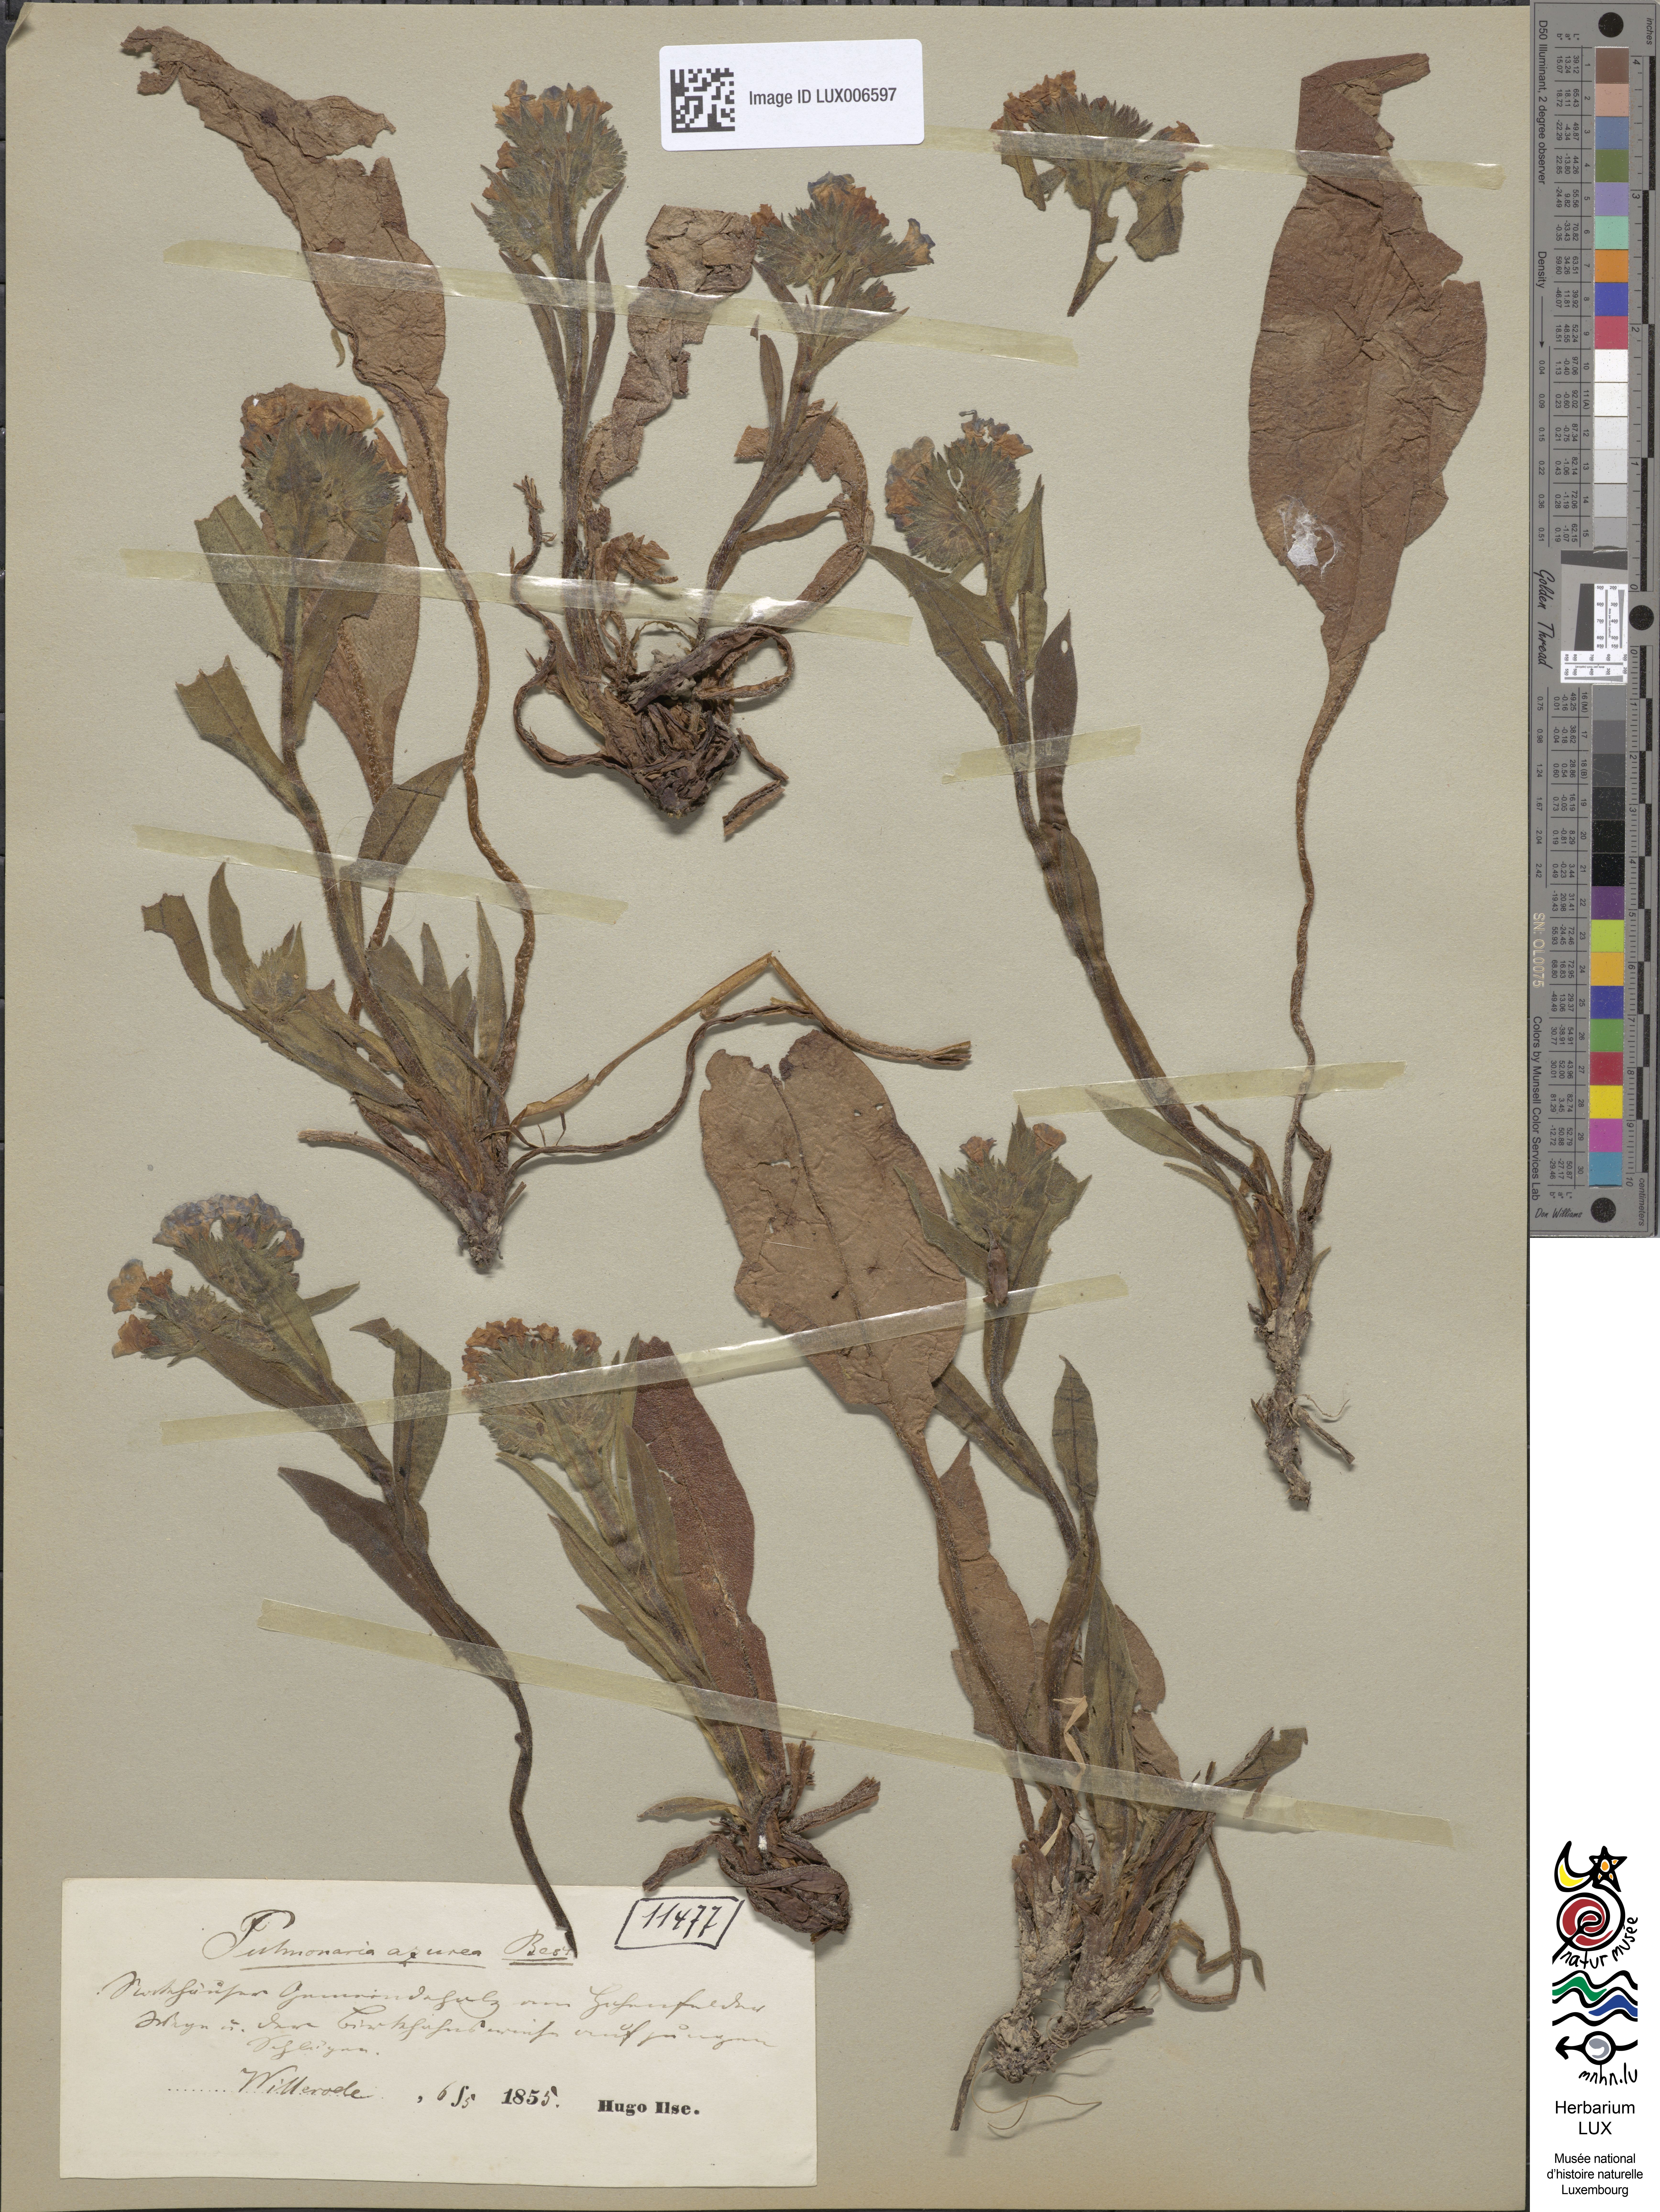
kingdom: Plantae
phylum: Tracheophyta
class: Magnoliopsida
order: Boraginales
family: Boraginaceae
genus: Pulmonaria
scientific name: Pulmonaria angustifolia
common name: Blue cowslip
